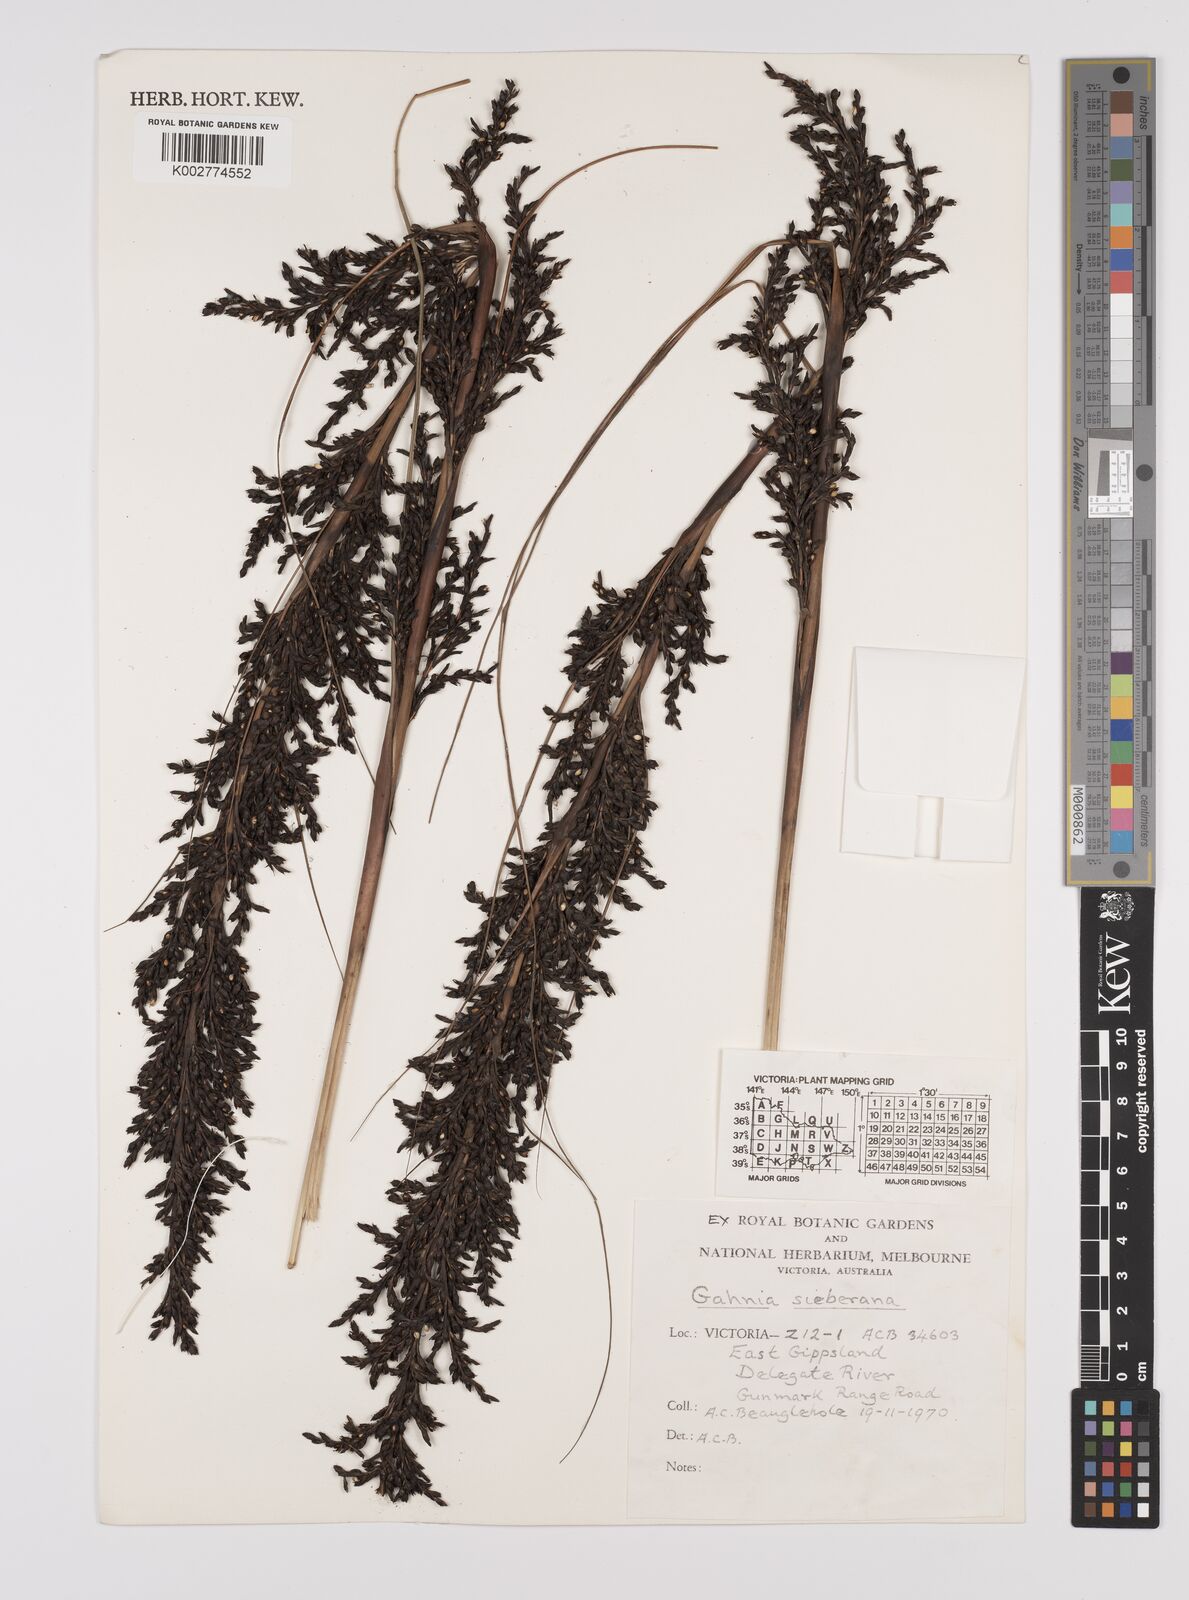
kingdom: Plantae
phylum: Tracheophyta
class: Liliopsida
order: Poales
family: Cyperaceae
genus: Gahnia
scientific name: Gahnia sieberiana
